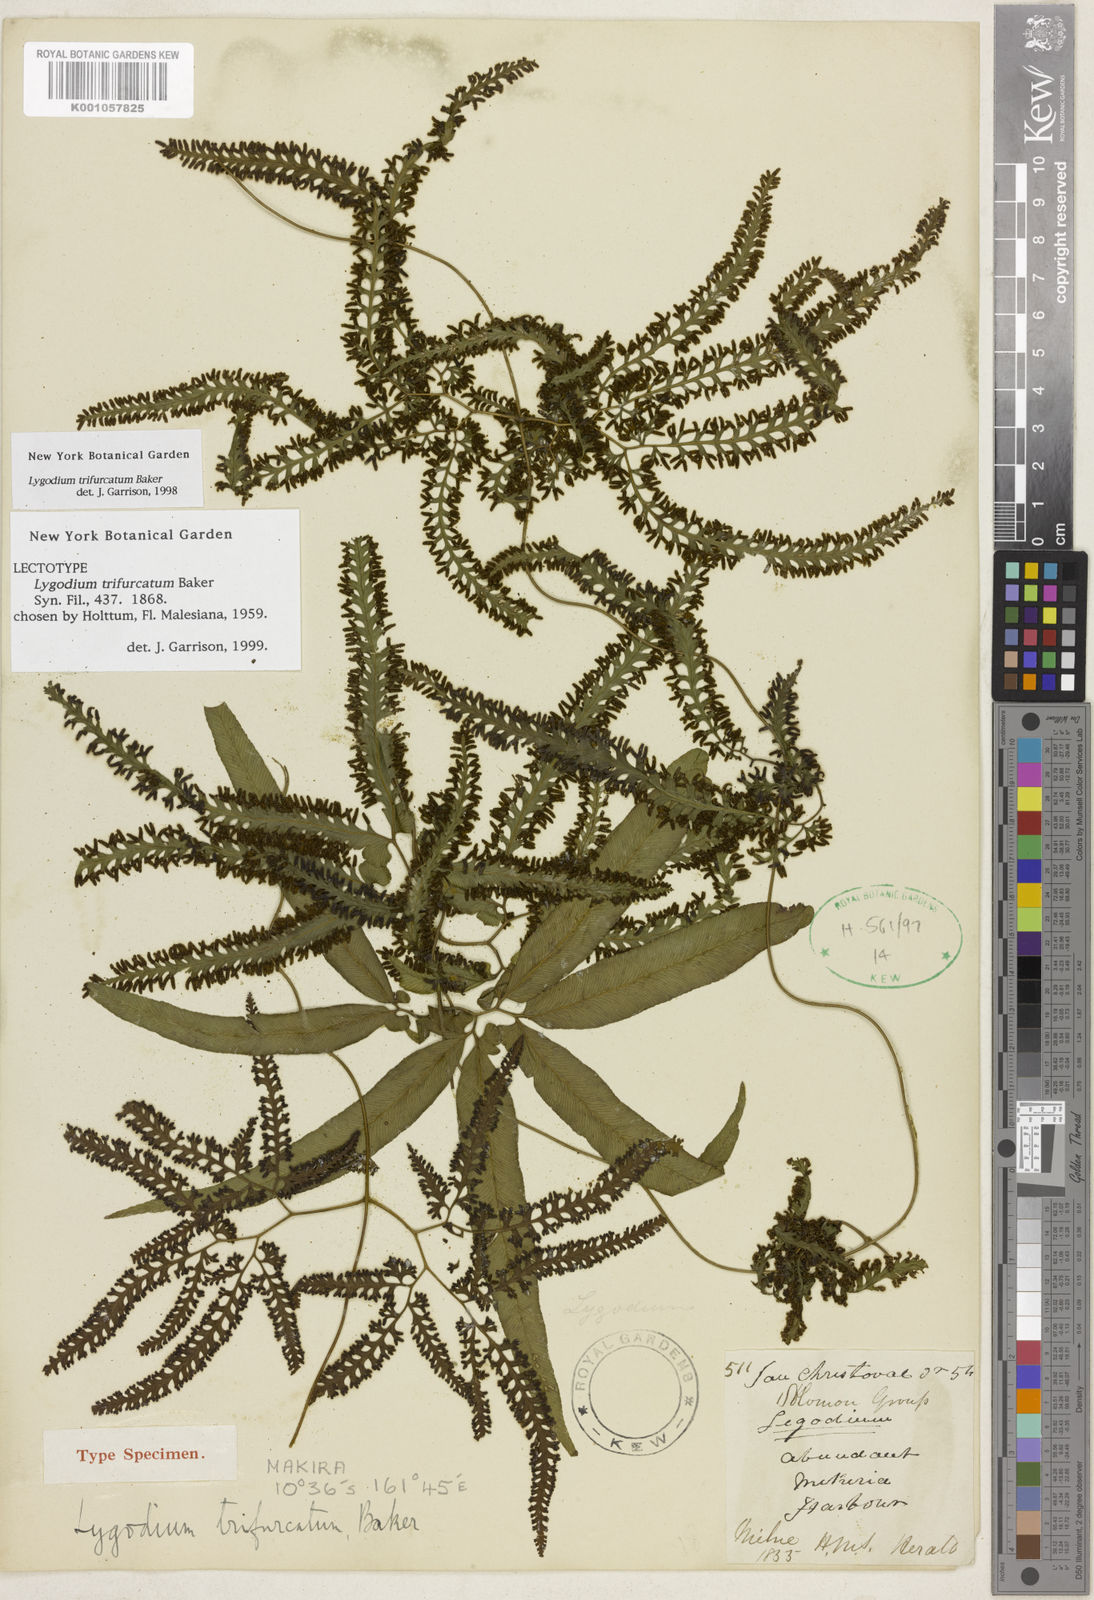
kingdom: Plantae
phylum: Tracheophyta
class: Polypodiopsida
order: Schizaeales
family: Lygodiaceae
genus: Lygodium
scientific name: Lygodium trifurcatum
